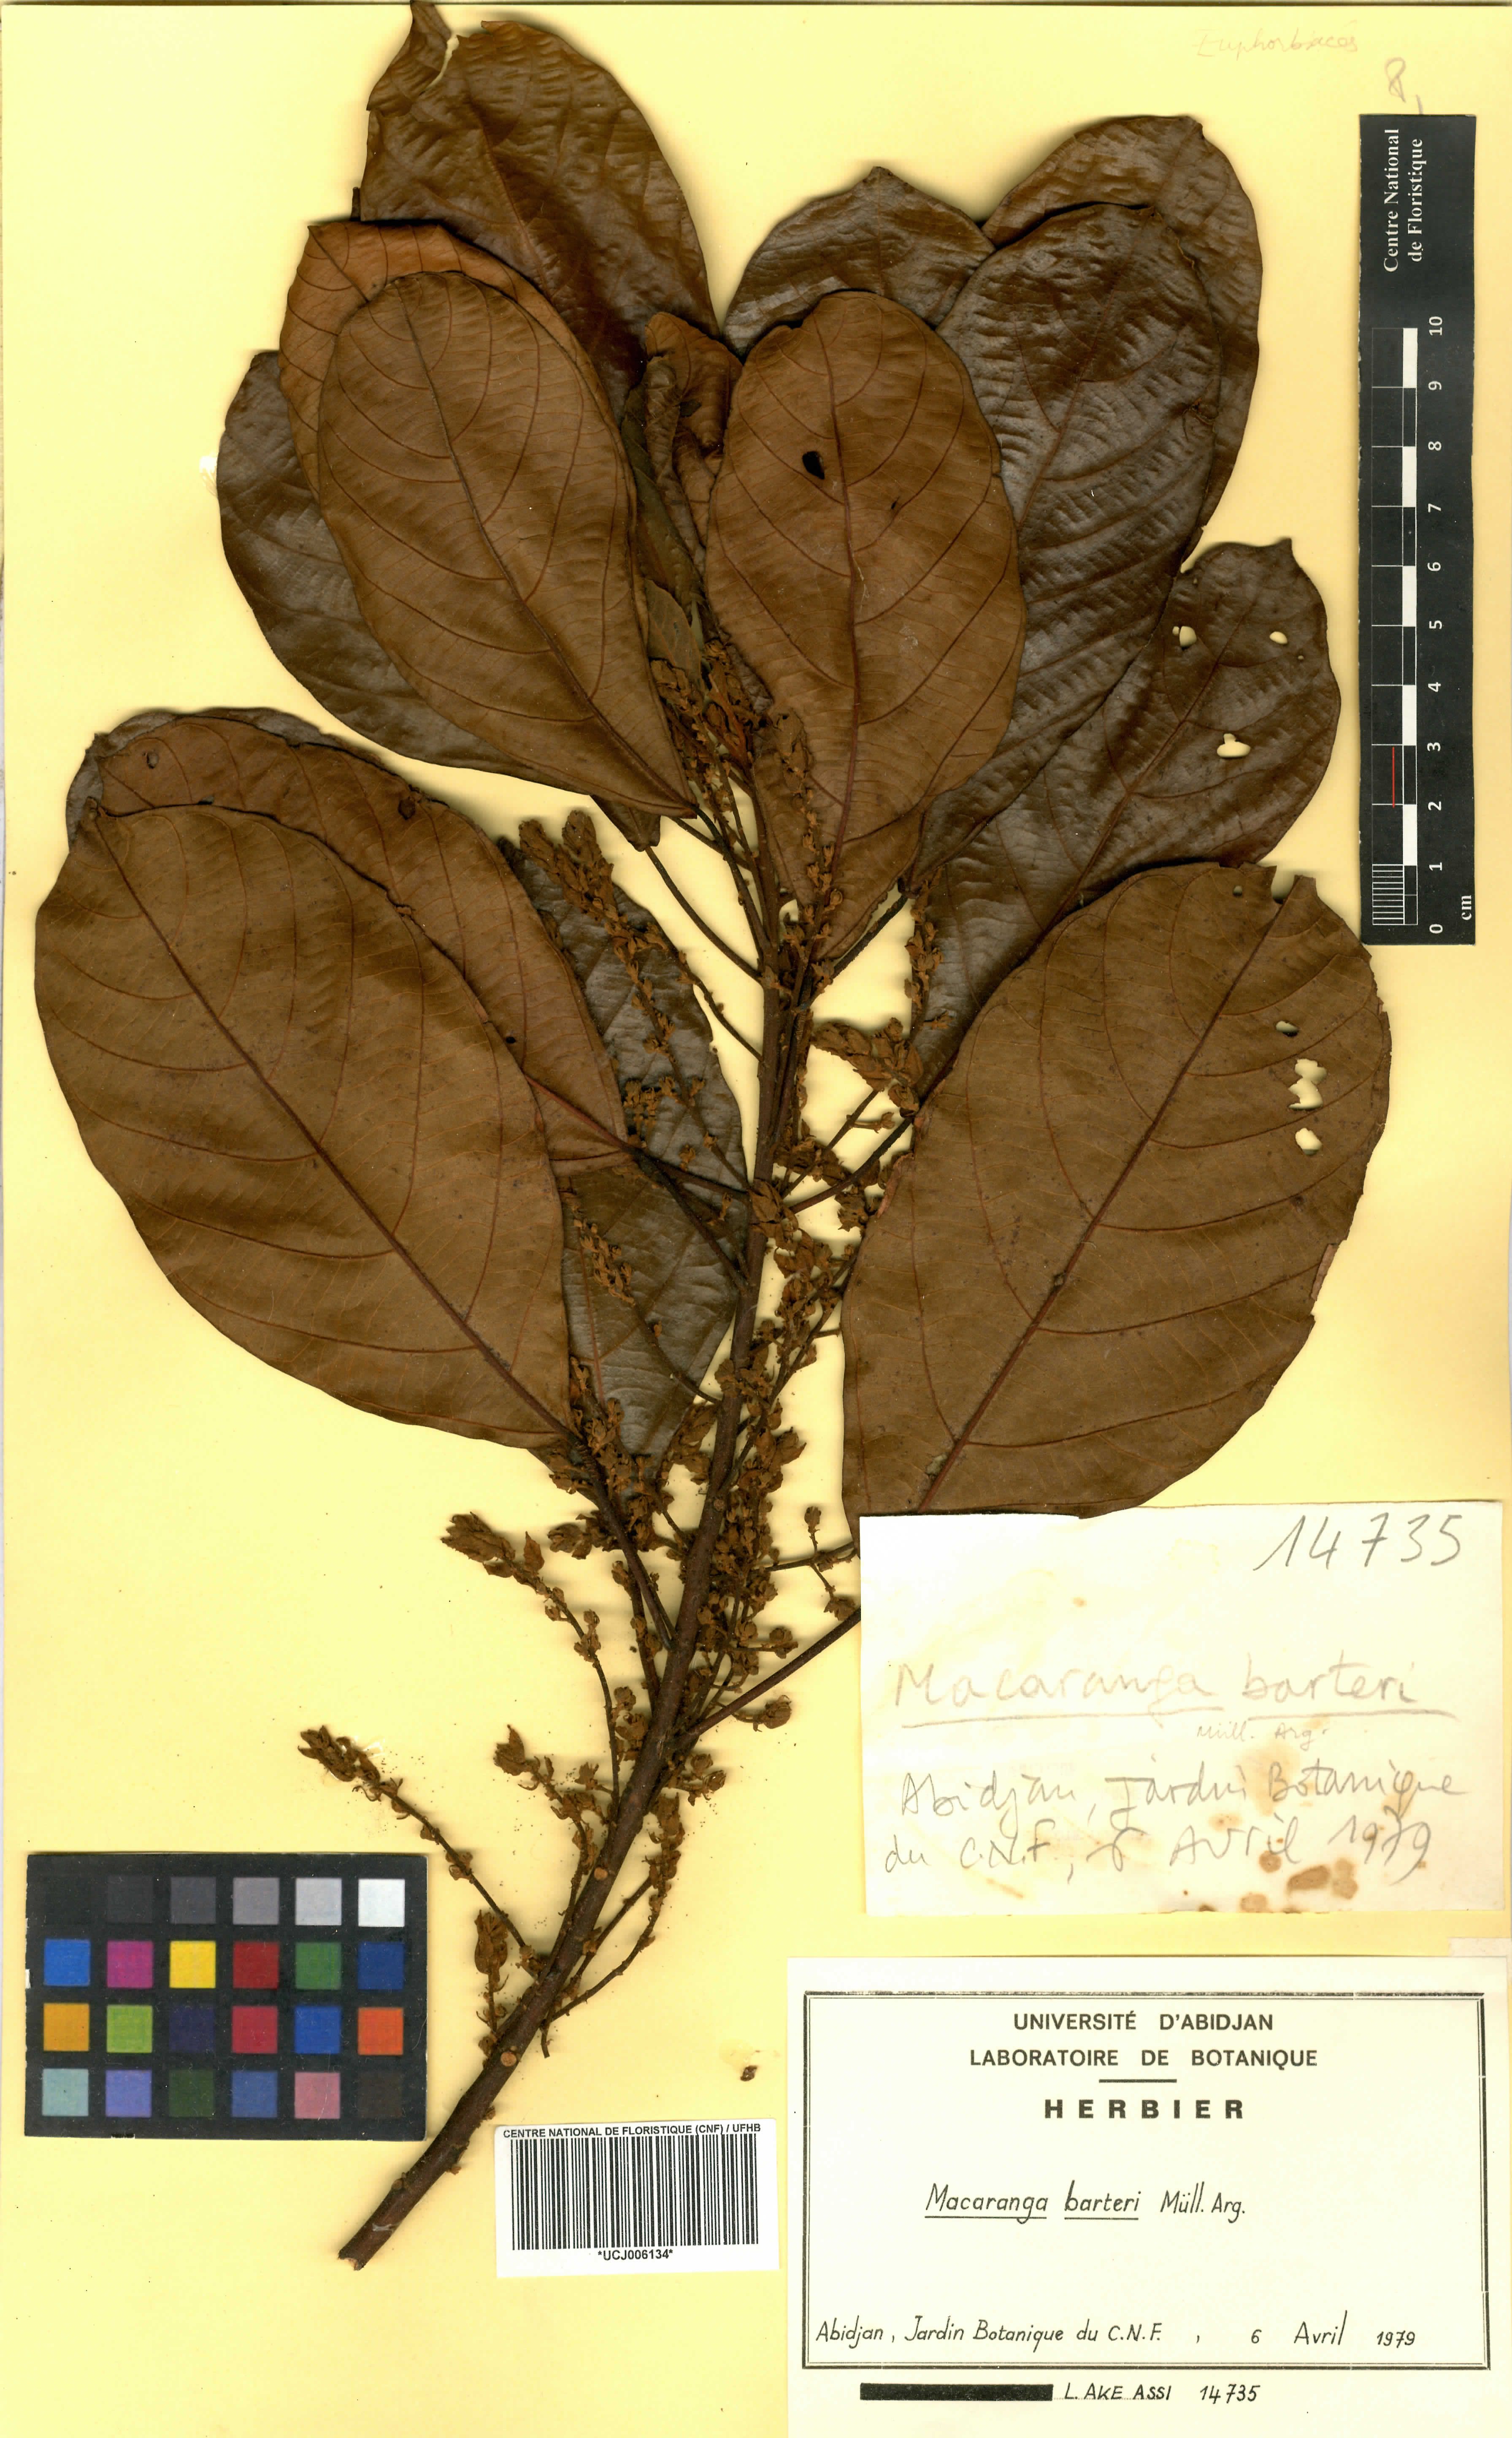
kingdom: Plantae
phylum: Tracheophyta
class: Magnoliopsida
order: Malpighiales
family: Euphorbiaceae
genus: Macaranga
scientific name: Macaranga barteri
